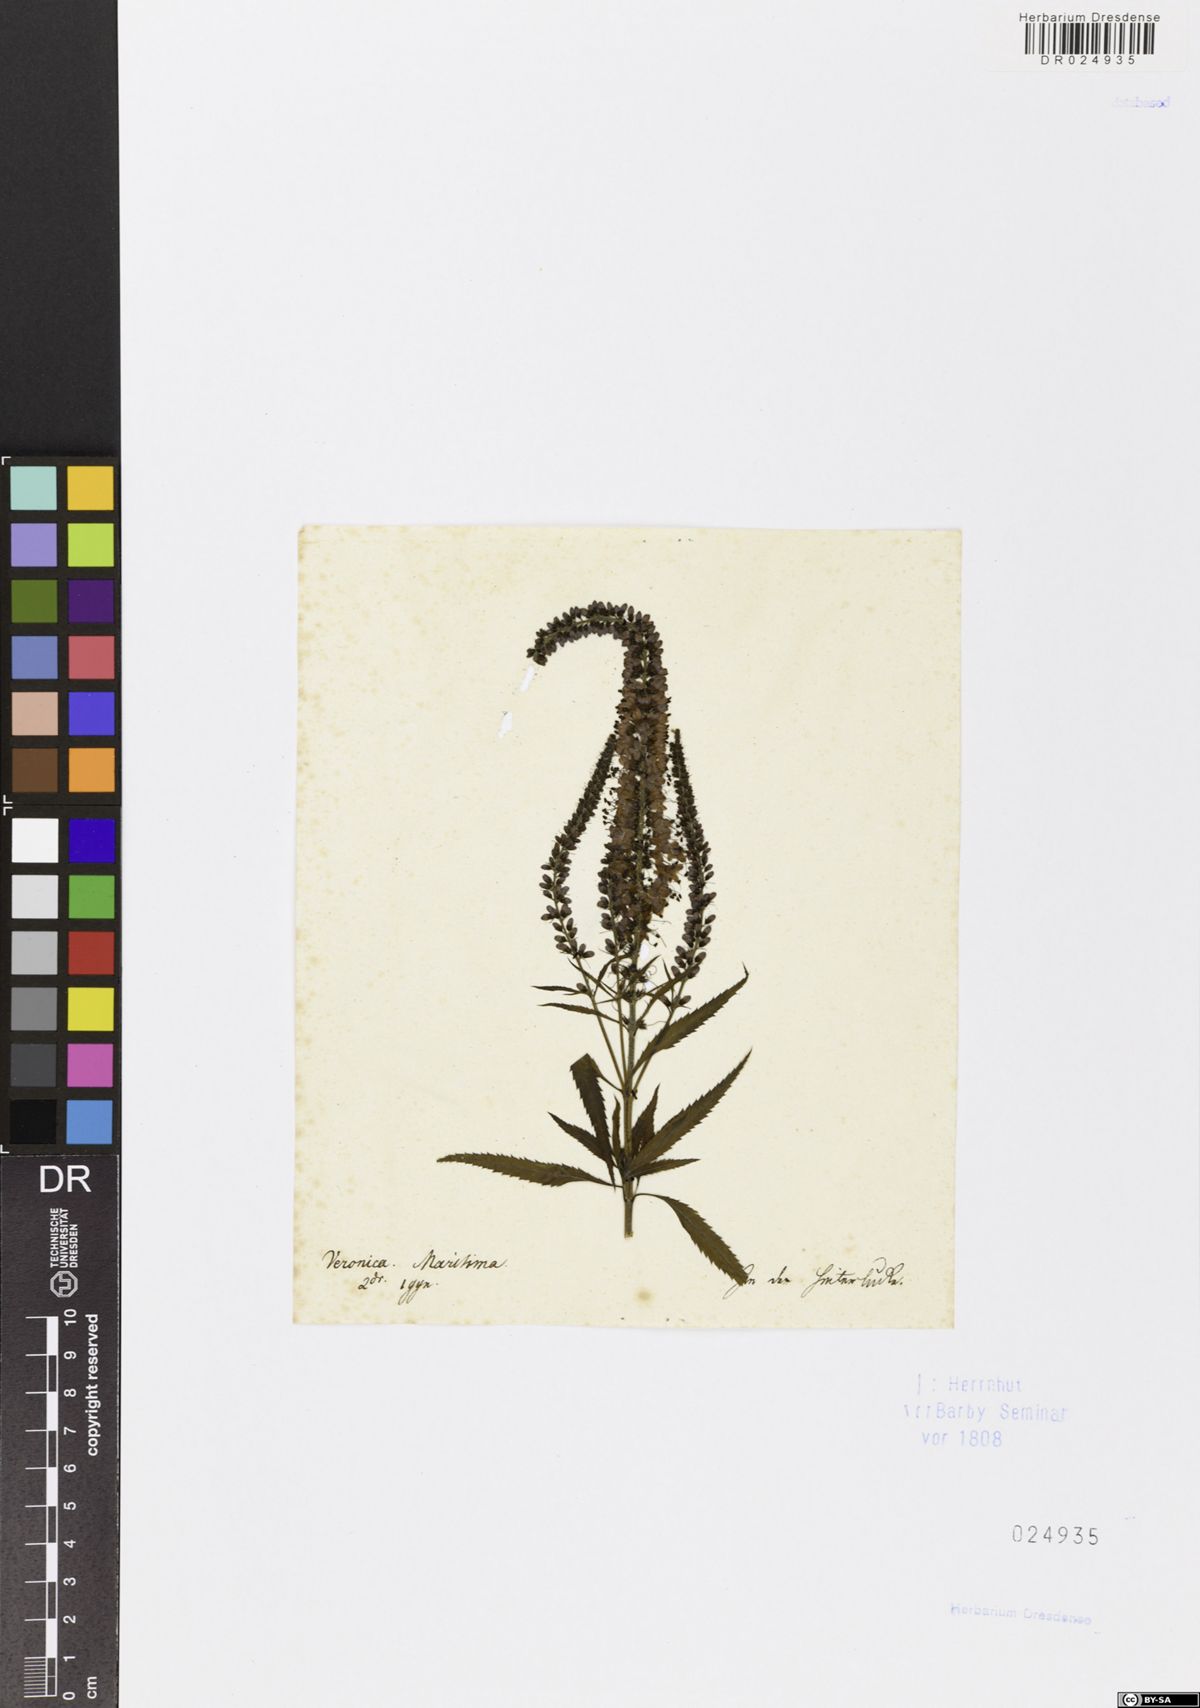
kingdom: Plantae
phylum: Tracheophyta
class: Magnoliopsida
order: Lamiales
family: Plantaginaceae
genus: Veronica
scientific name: Veronica maritima
